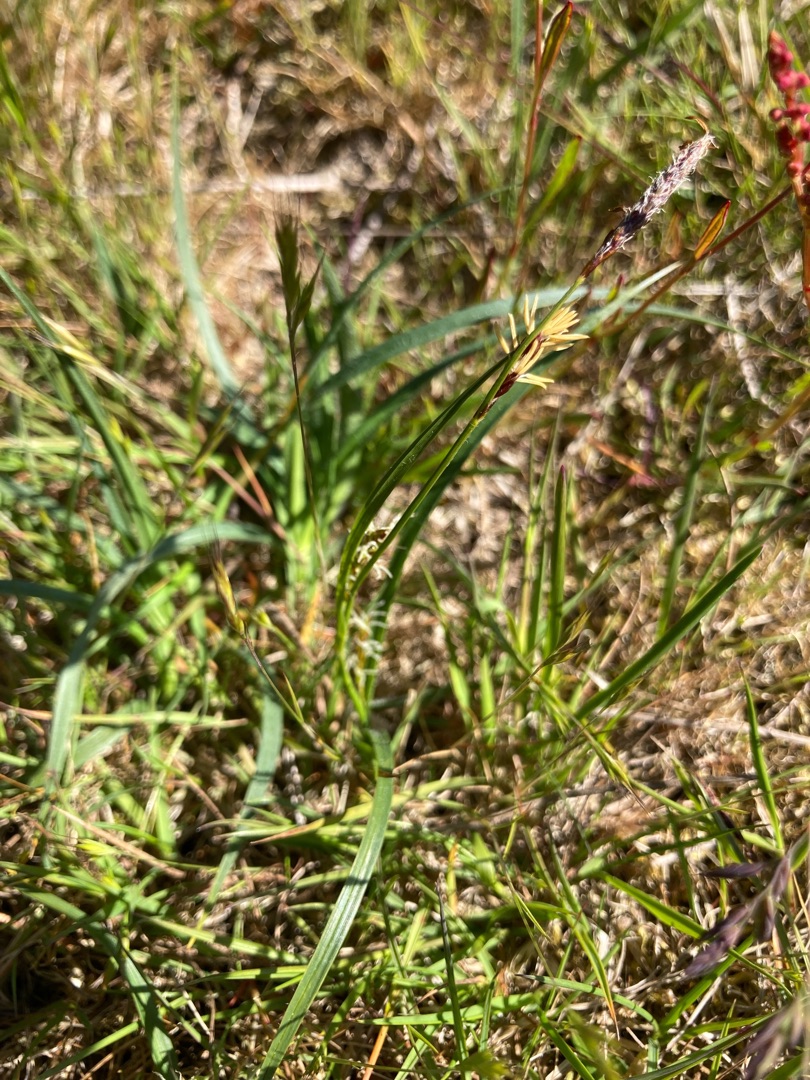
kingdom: Plantae
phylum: Tracheophyta
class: Liliopsida
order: Poales
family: Cyperaceae
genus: Carex
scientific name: Carex hirta
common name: Håret star
